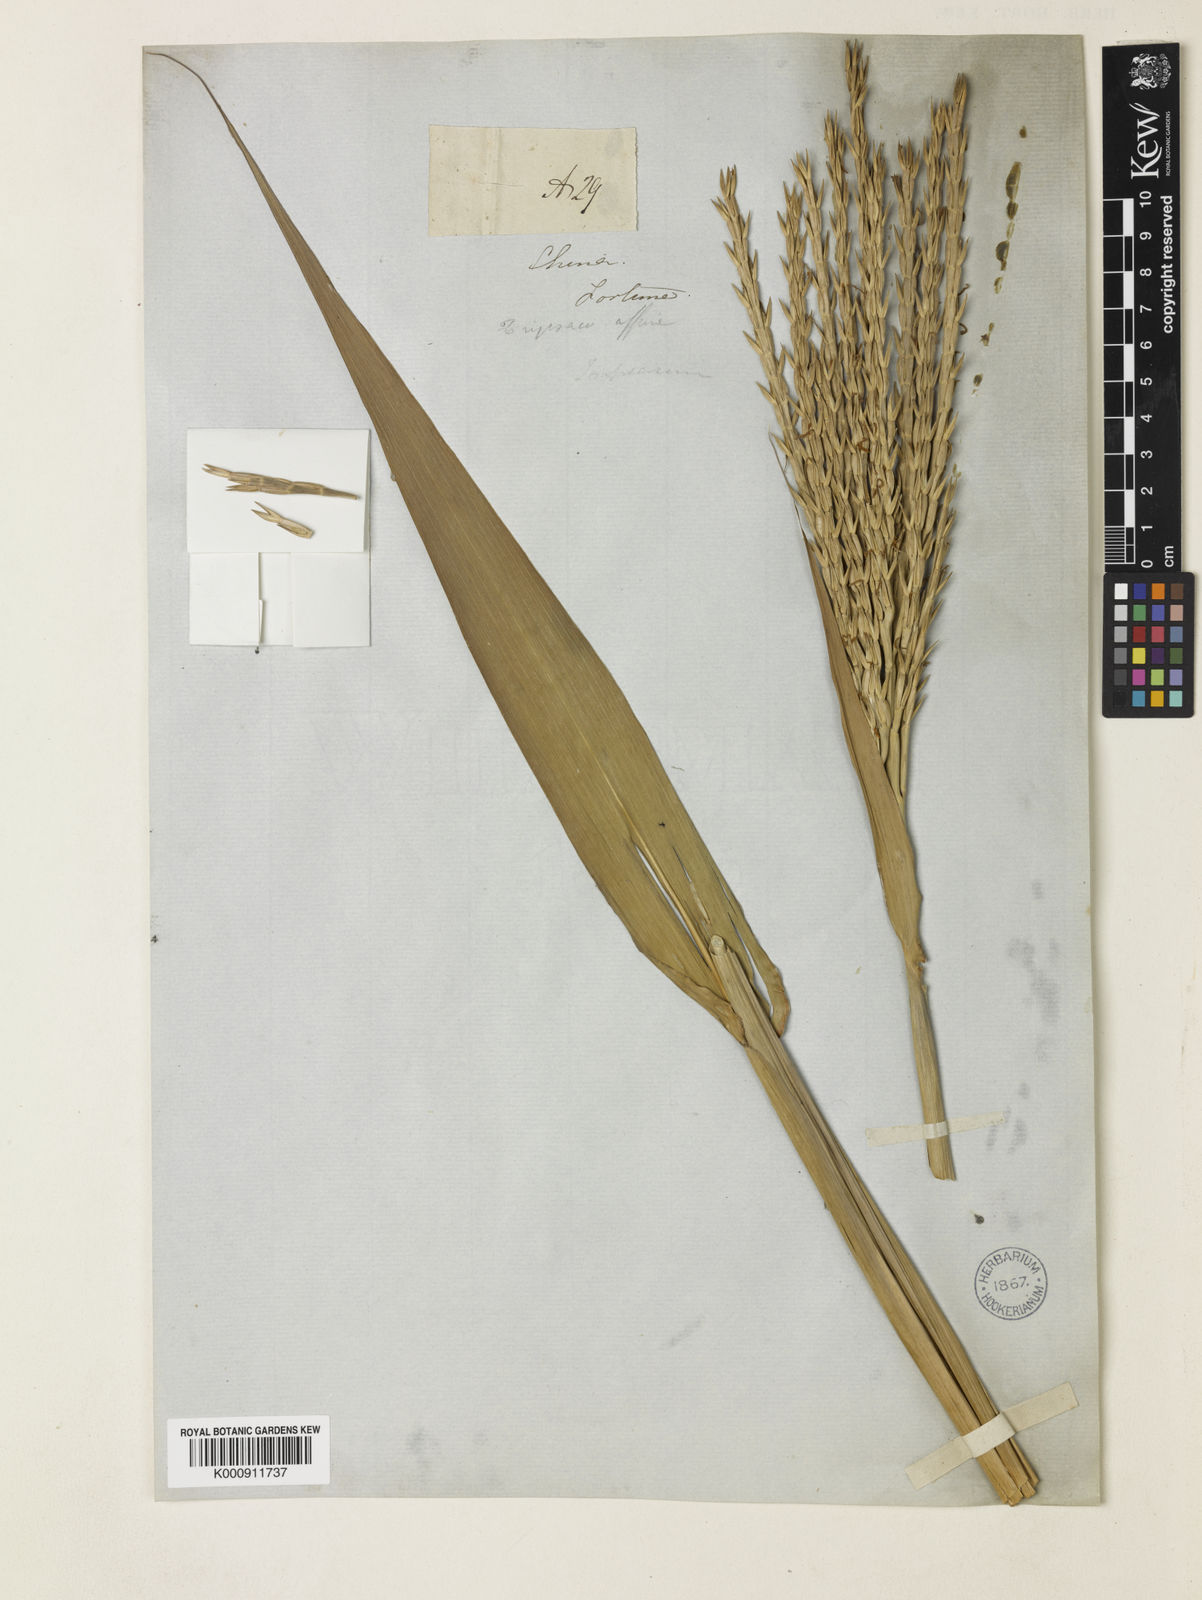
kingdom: Plantae
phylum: Tracheophyta
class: Liliopsida
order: Poales
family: Poaceae
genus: Phacelurus
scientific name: Phacelurus
